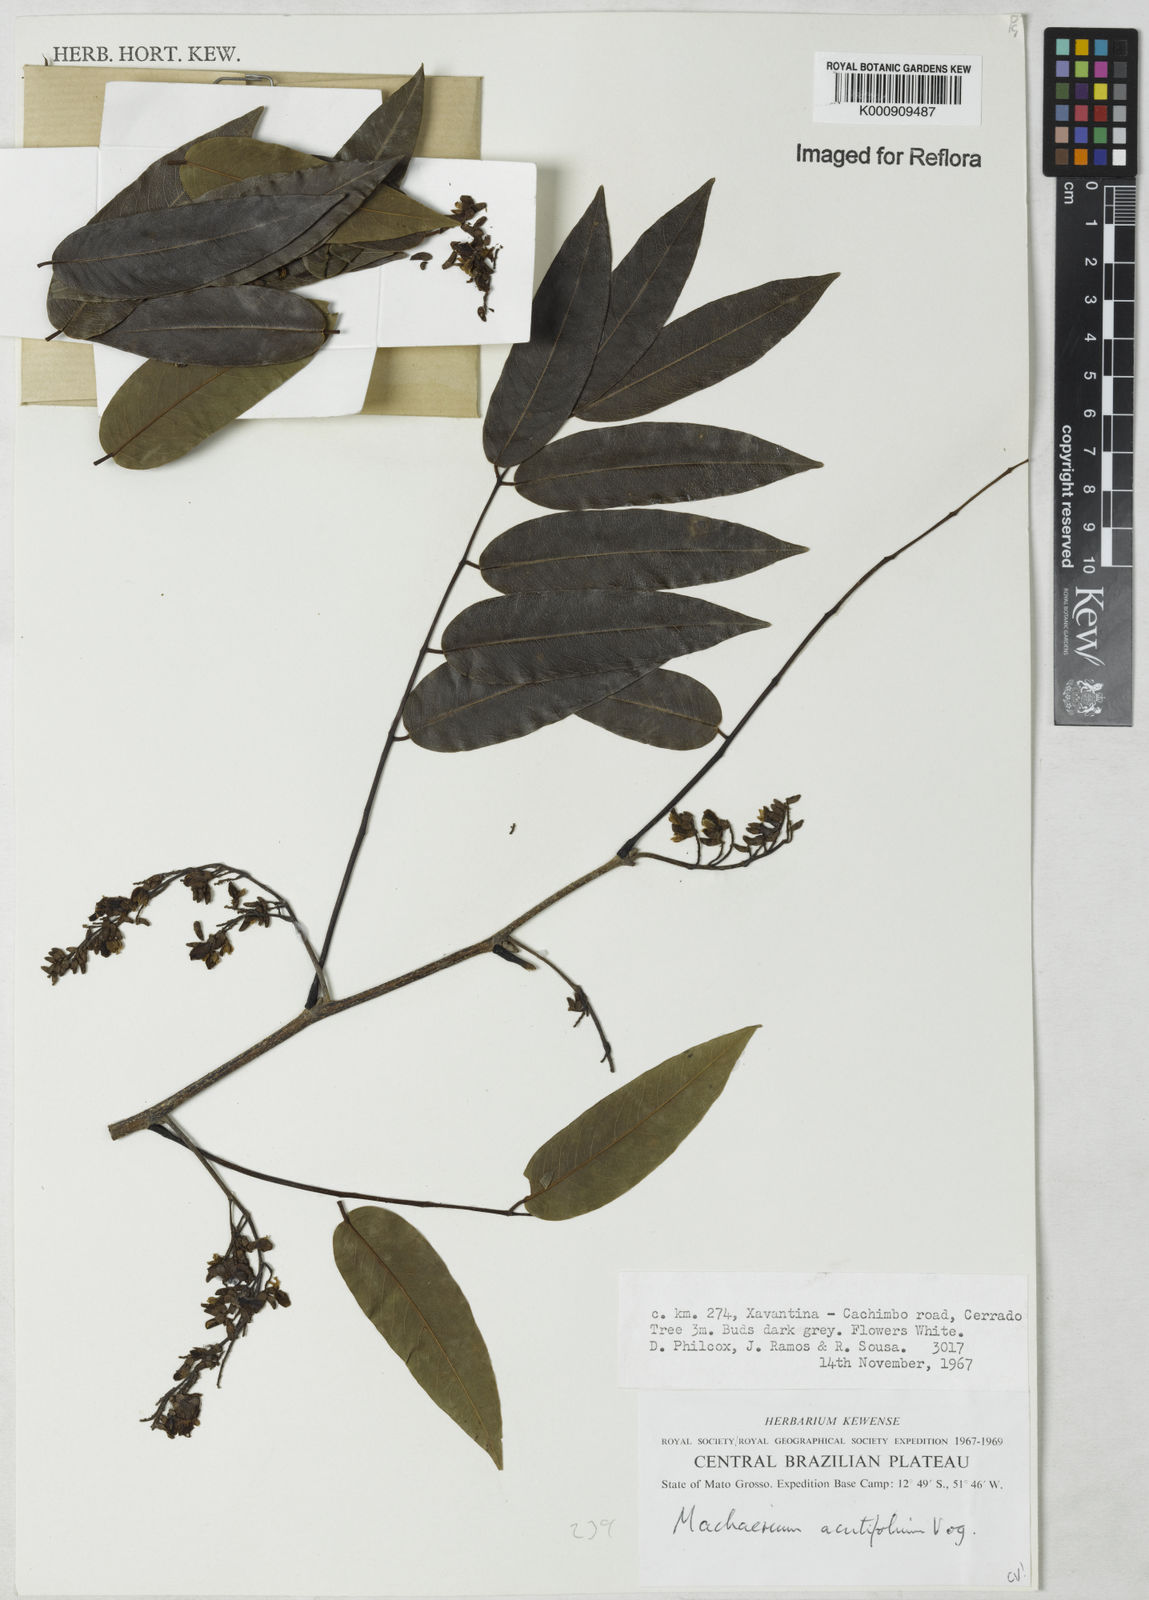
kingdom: Plantae
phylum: Tracheophyta
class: Magnoliopsida
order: Fabales
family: Fabaceae
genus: Machaerium
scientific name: Machaerium acutifolium
